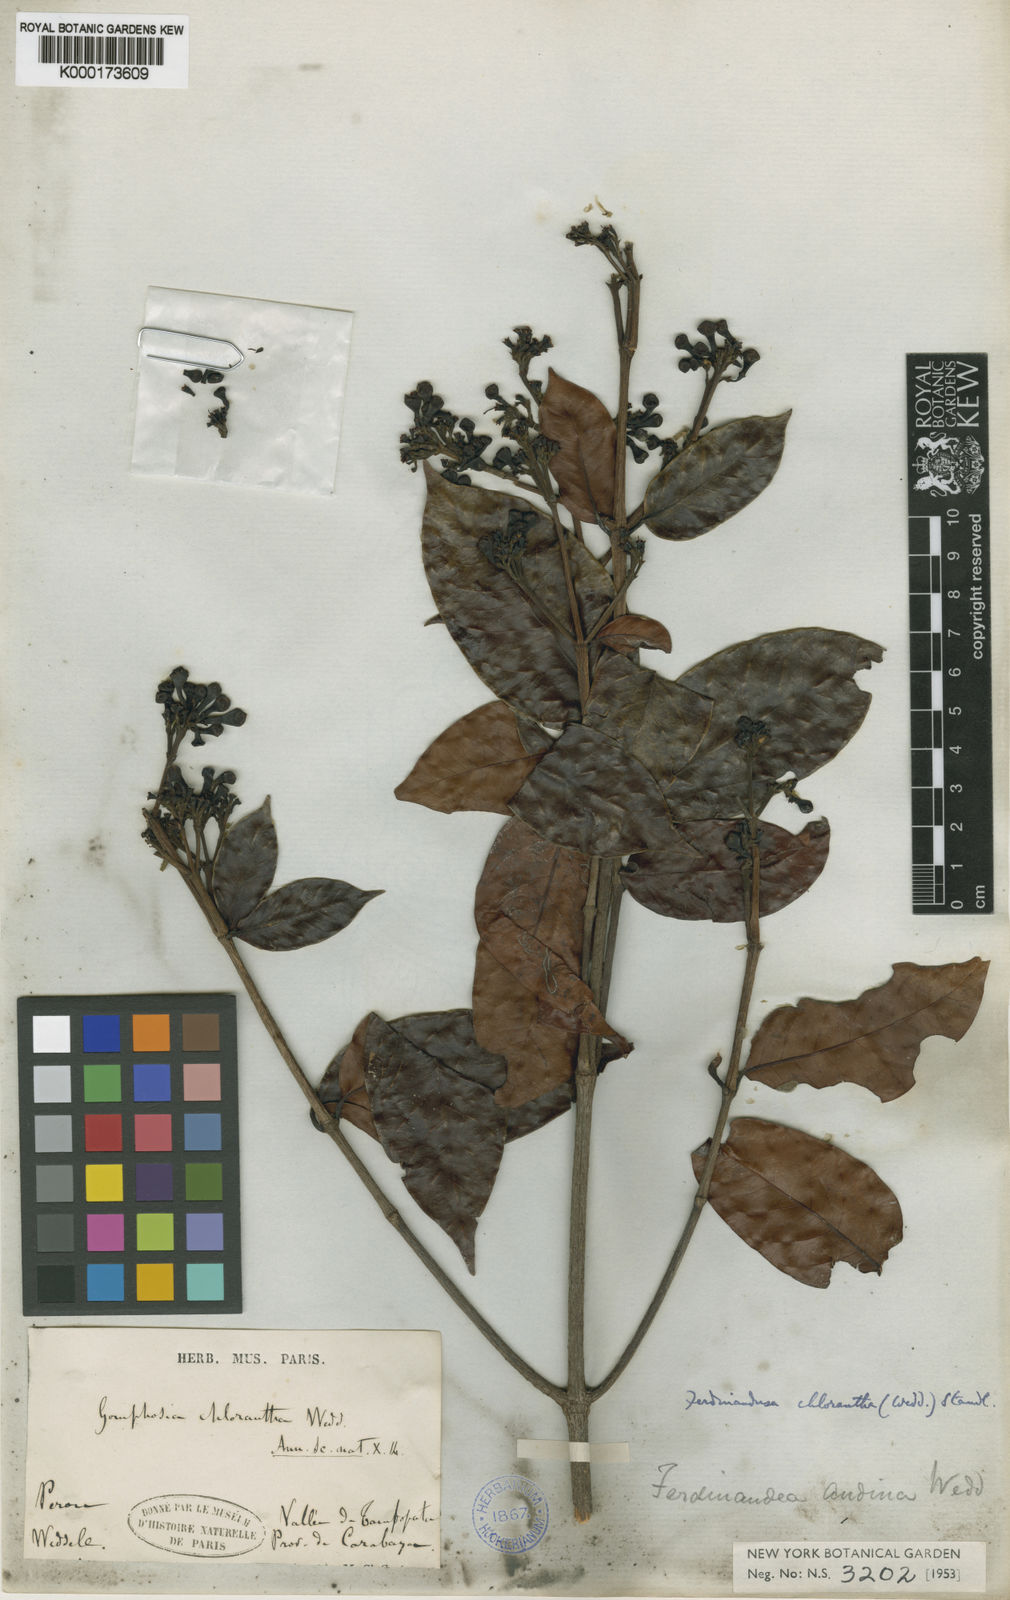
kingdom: Plantae
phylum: Tracheophyta
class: Magnoliopsida
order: Gentianales
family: Rubiaceae
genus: Ferdinandusa
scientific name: Ferdinandusa chlorantha
